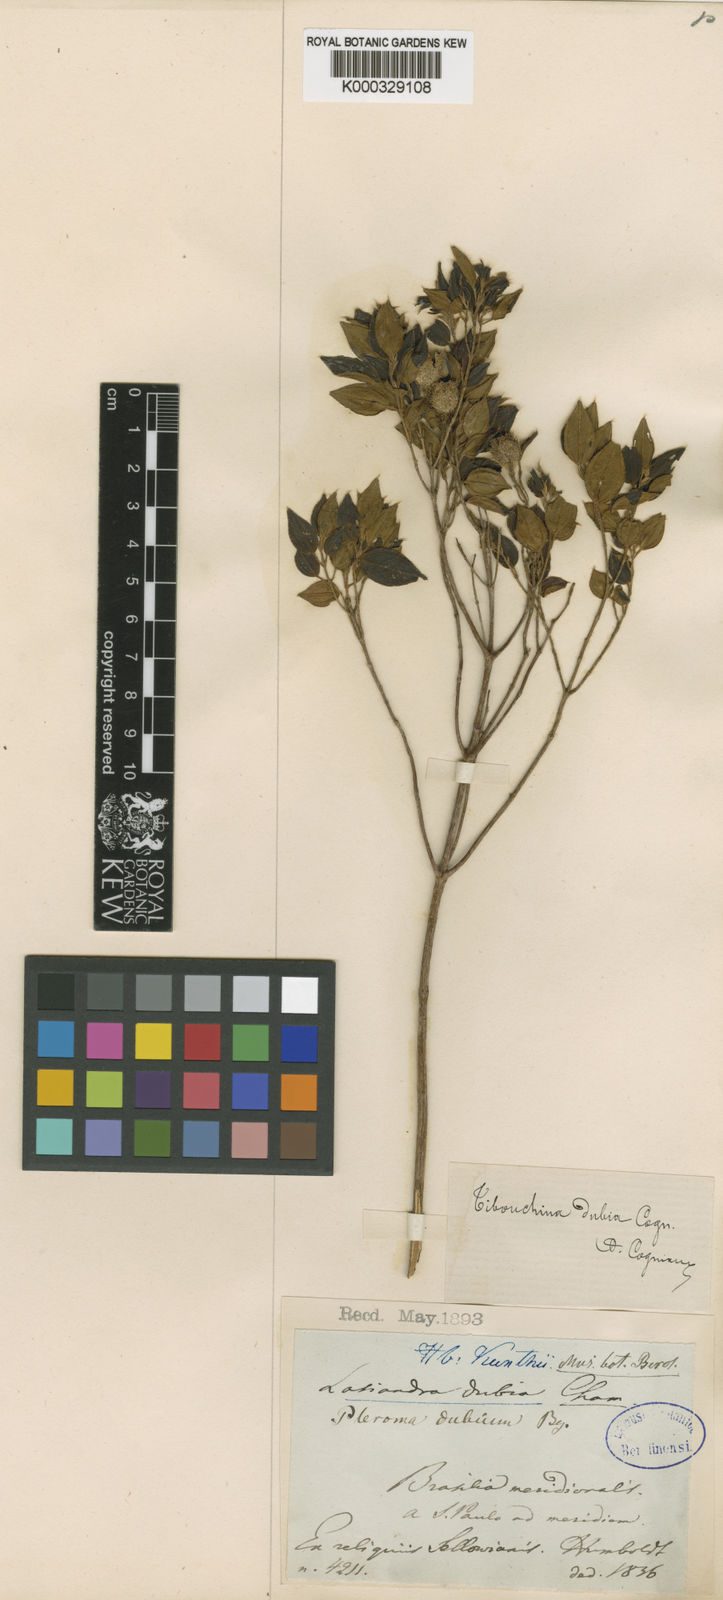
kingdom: Plantae
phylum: Tracheophyta
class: Magnoliopsida
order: Myrtales
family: Melastomataceae
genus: Pleroma
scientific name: Pleroma dubium
